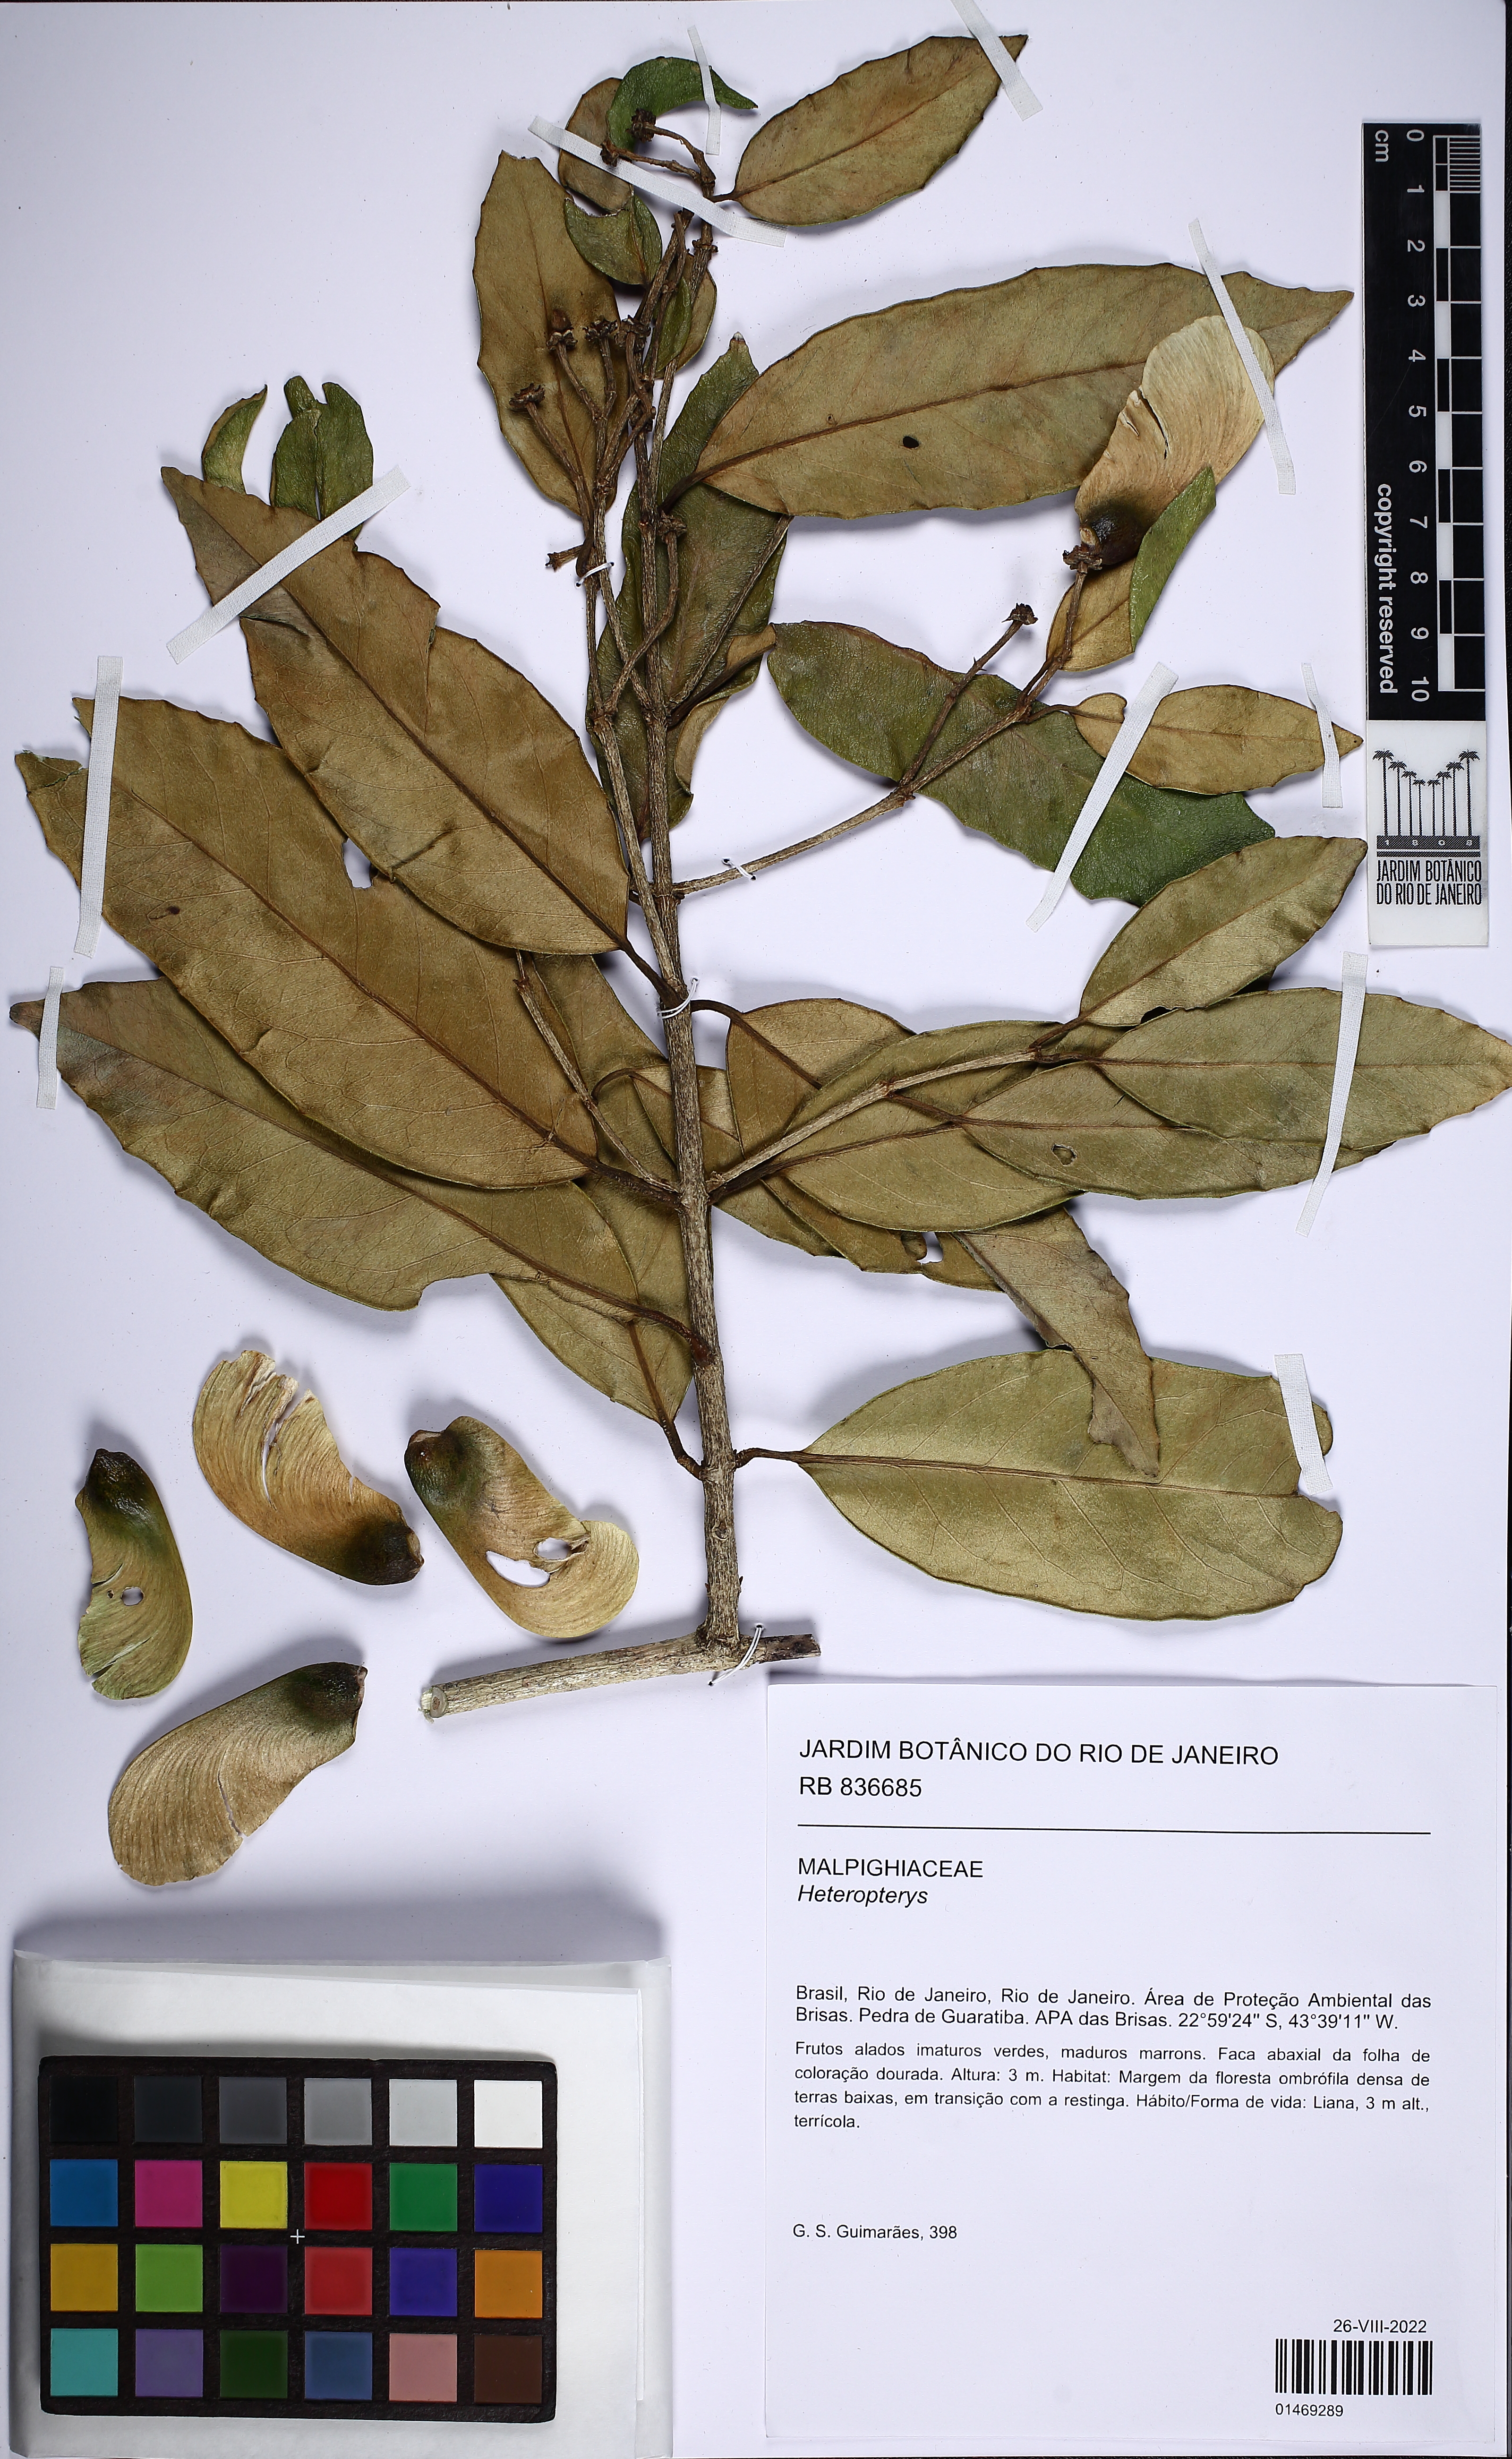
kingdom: Plantae
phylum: Tracheophyta
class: Magnoliopsida
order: Malpighiales
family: Malpighiaceae
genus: Heteropterys
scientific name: Heteropterys chrysophylla
